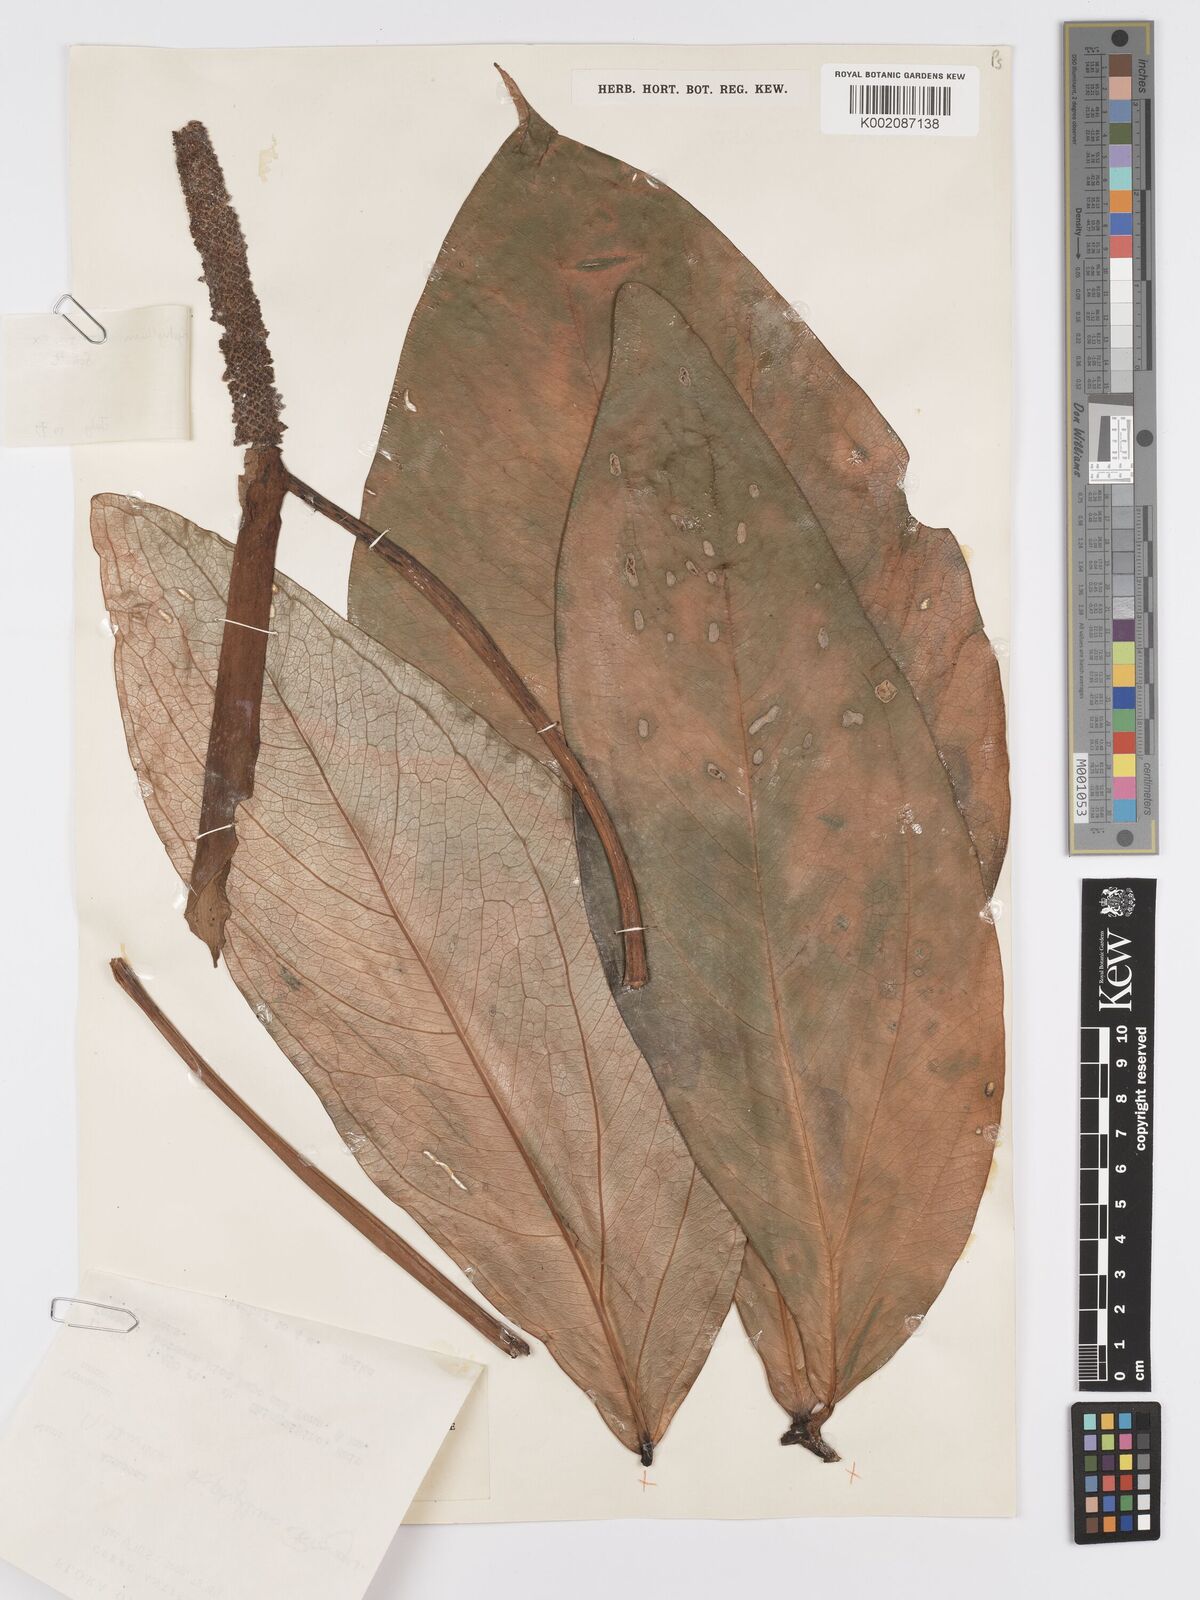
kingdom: Plantae
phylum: Tracheophyta
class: Liliopsida
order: Alismatales
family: Araceae
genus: Anthurium
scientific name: Anthurium triphyllum
